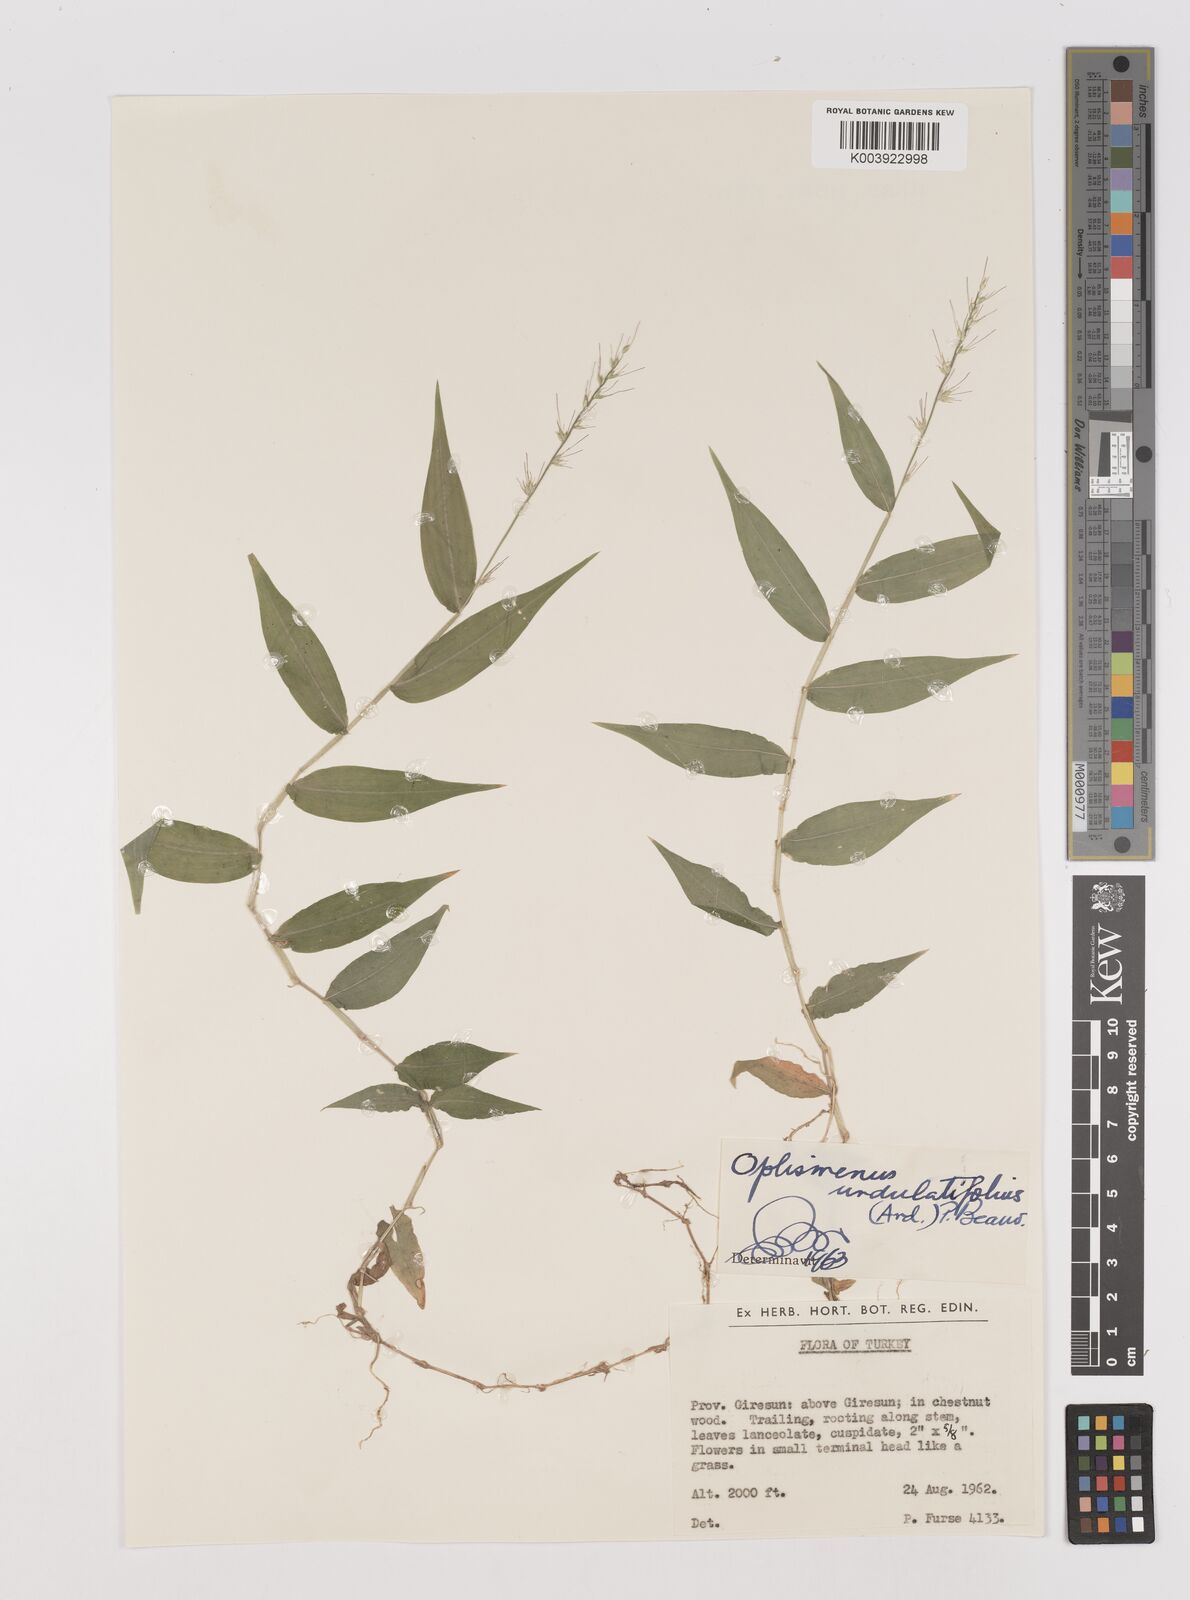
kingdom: Plantae
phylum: Tracheophyta
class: Liliopsida
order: Poales
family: Poaceae
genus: Oplismenus
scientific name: Oplismenus undulatifolius
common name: Wavyleaf basketgrass
